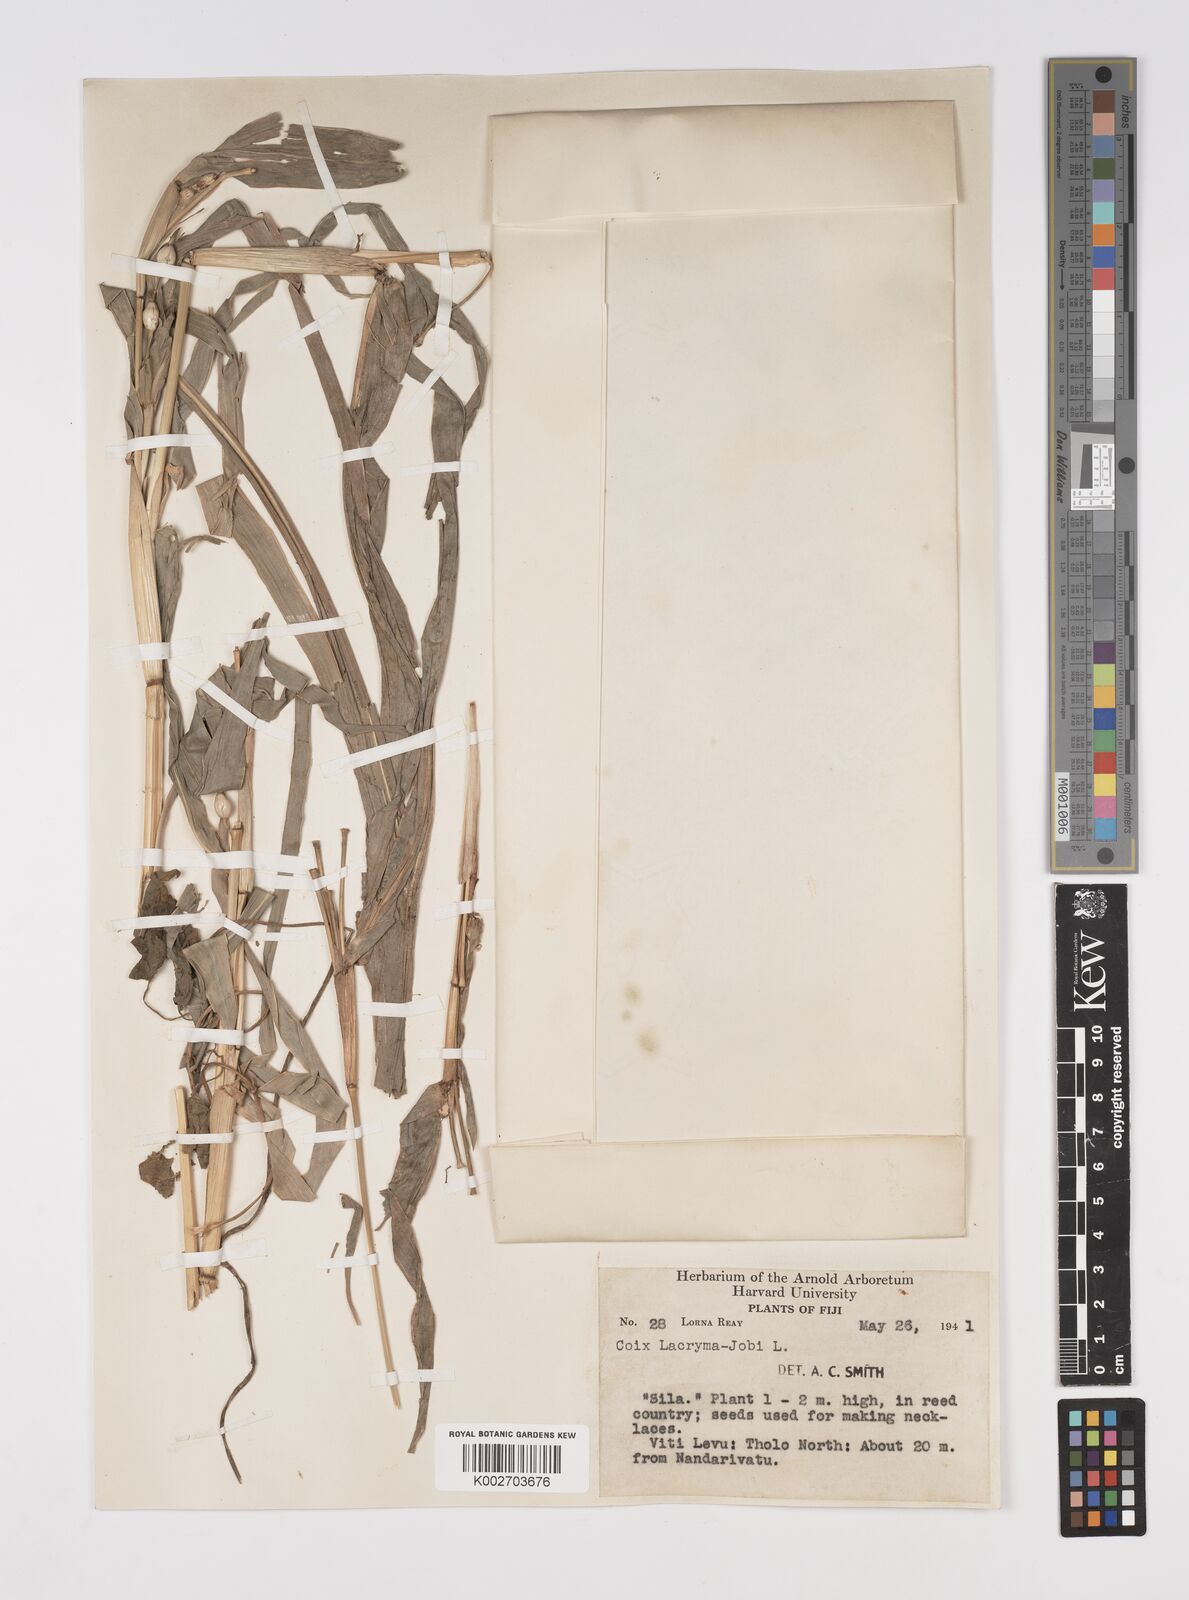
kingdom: Plantae
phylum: Tracheophyta
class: Liliopsida
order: Poales
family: Poaceae
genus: Coix
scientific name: Coix lacryma-jobi
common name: Job's tears
